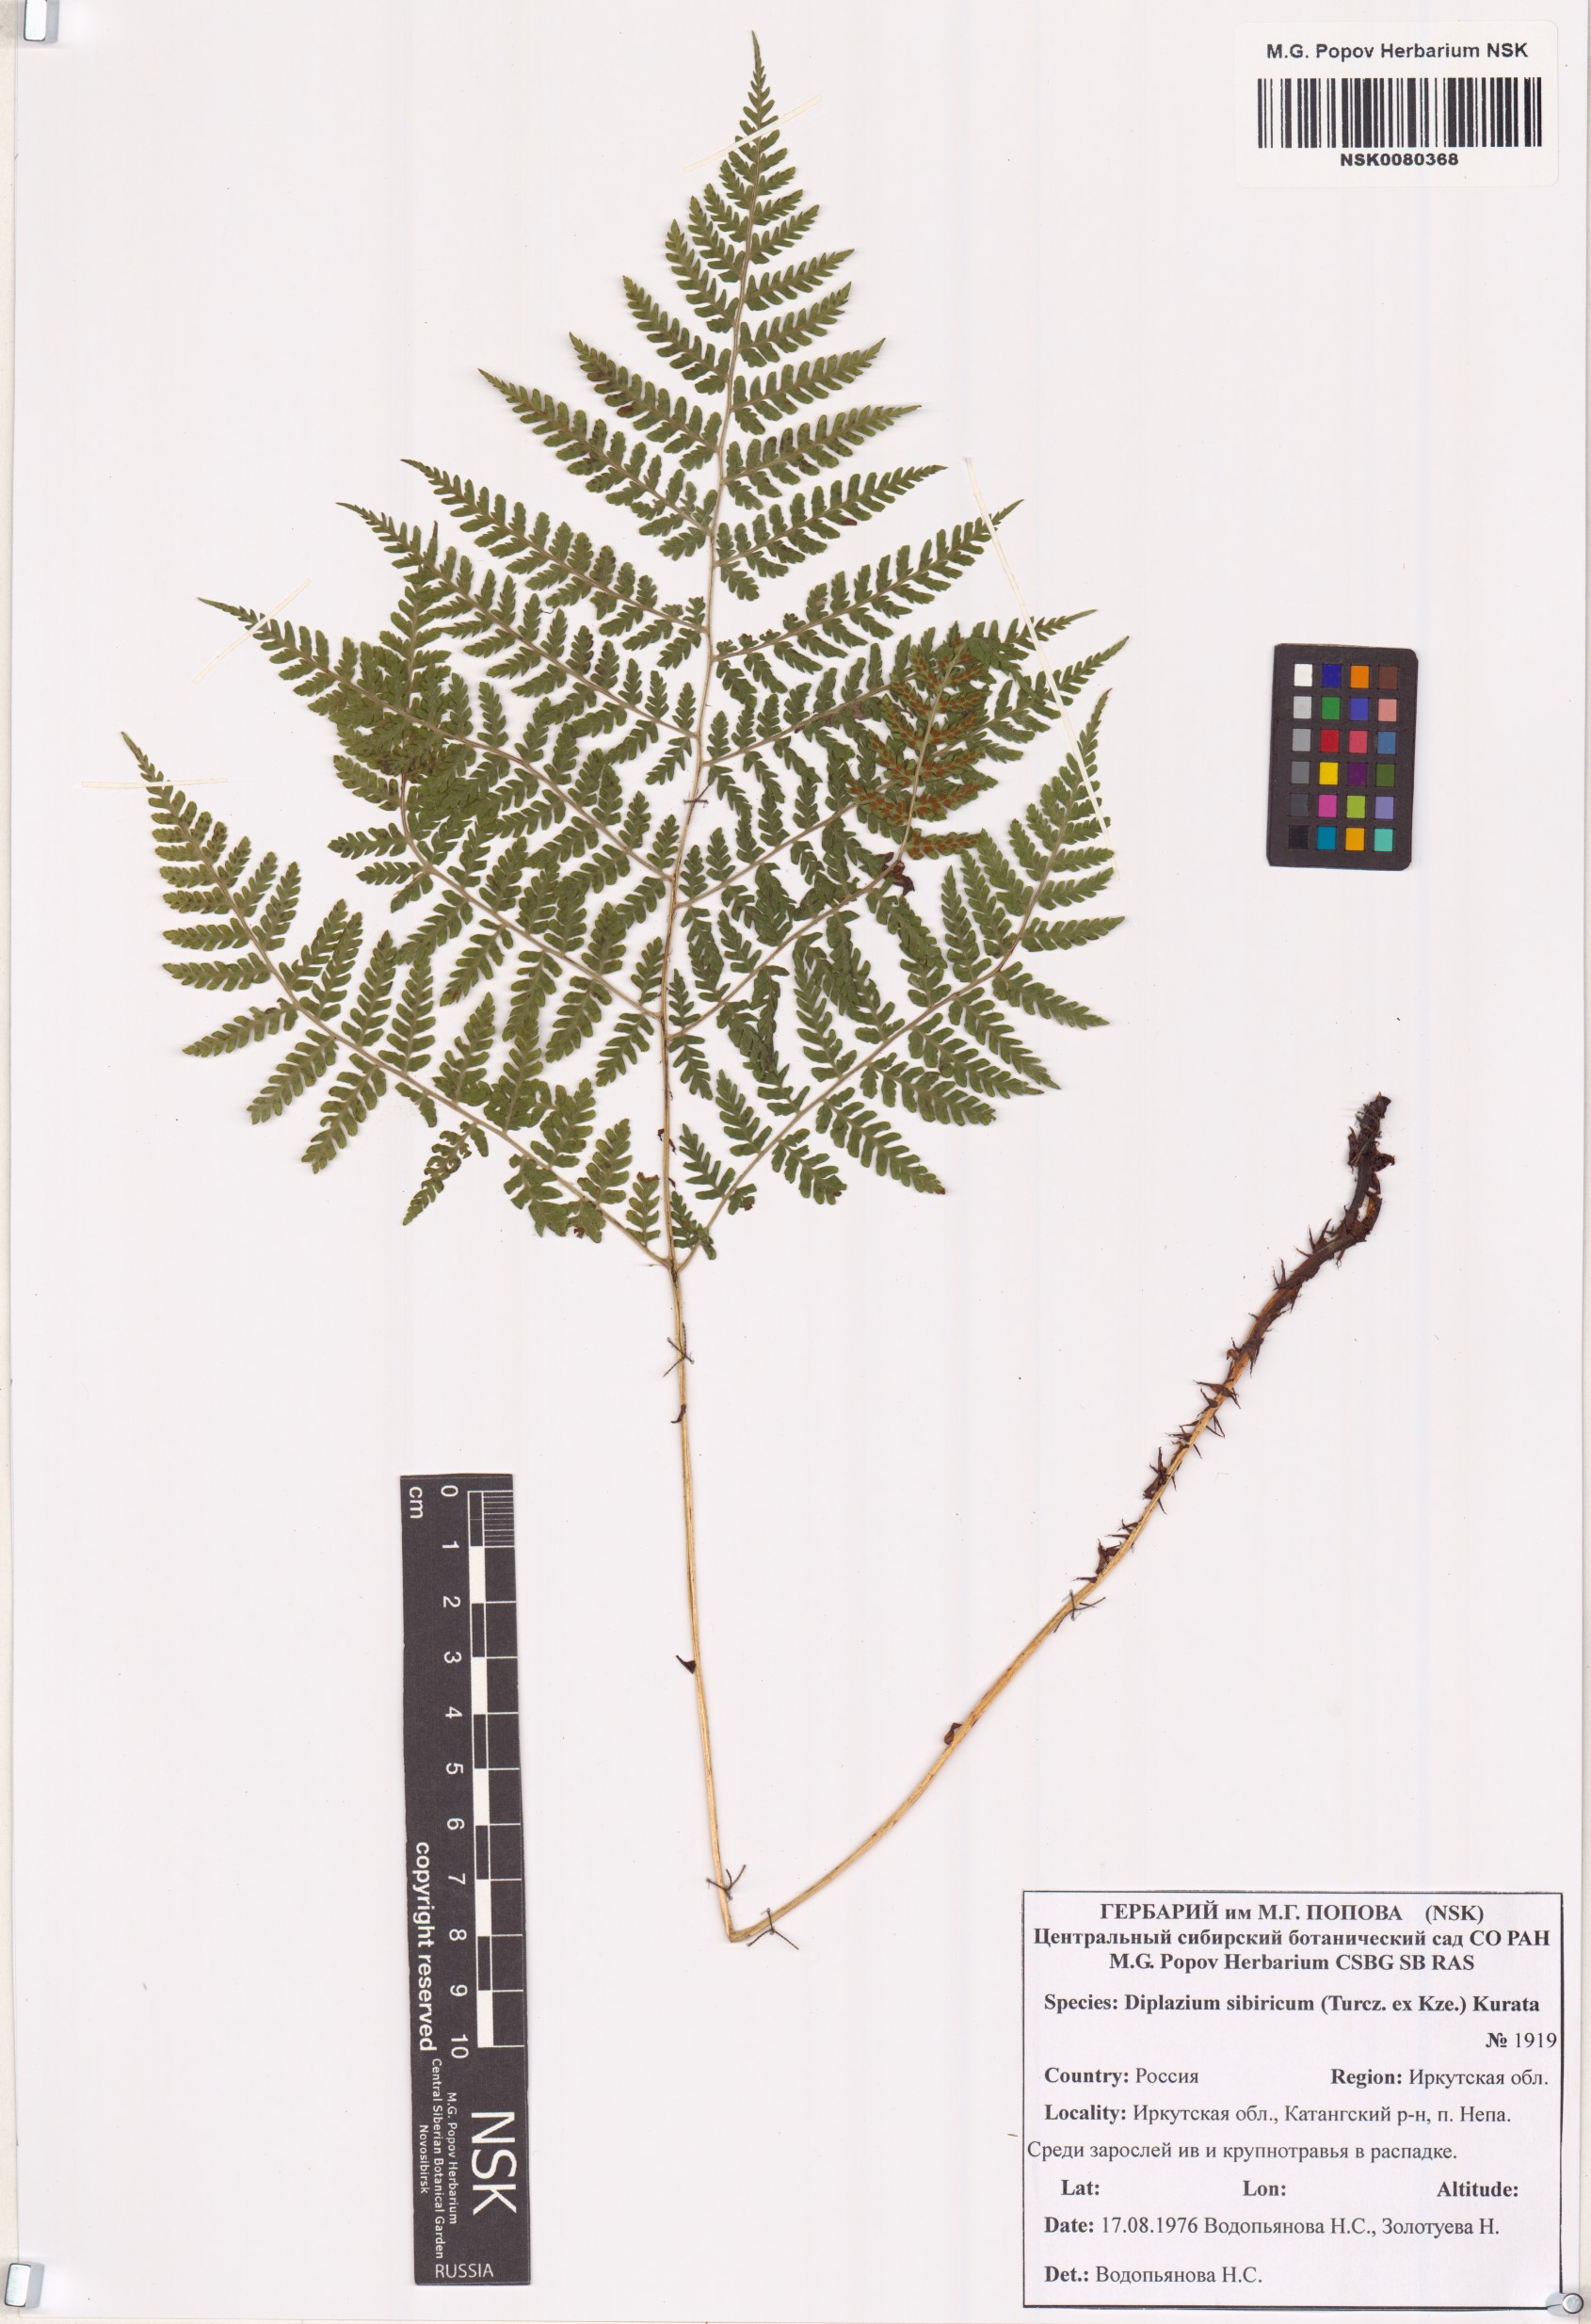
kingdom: Plantae
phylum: Tracheophyta
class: Polypodiopsida
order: Polypodiales
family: Athyriaceae
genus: Diplazium
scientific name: Diplazium sibiricum
